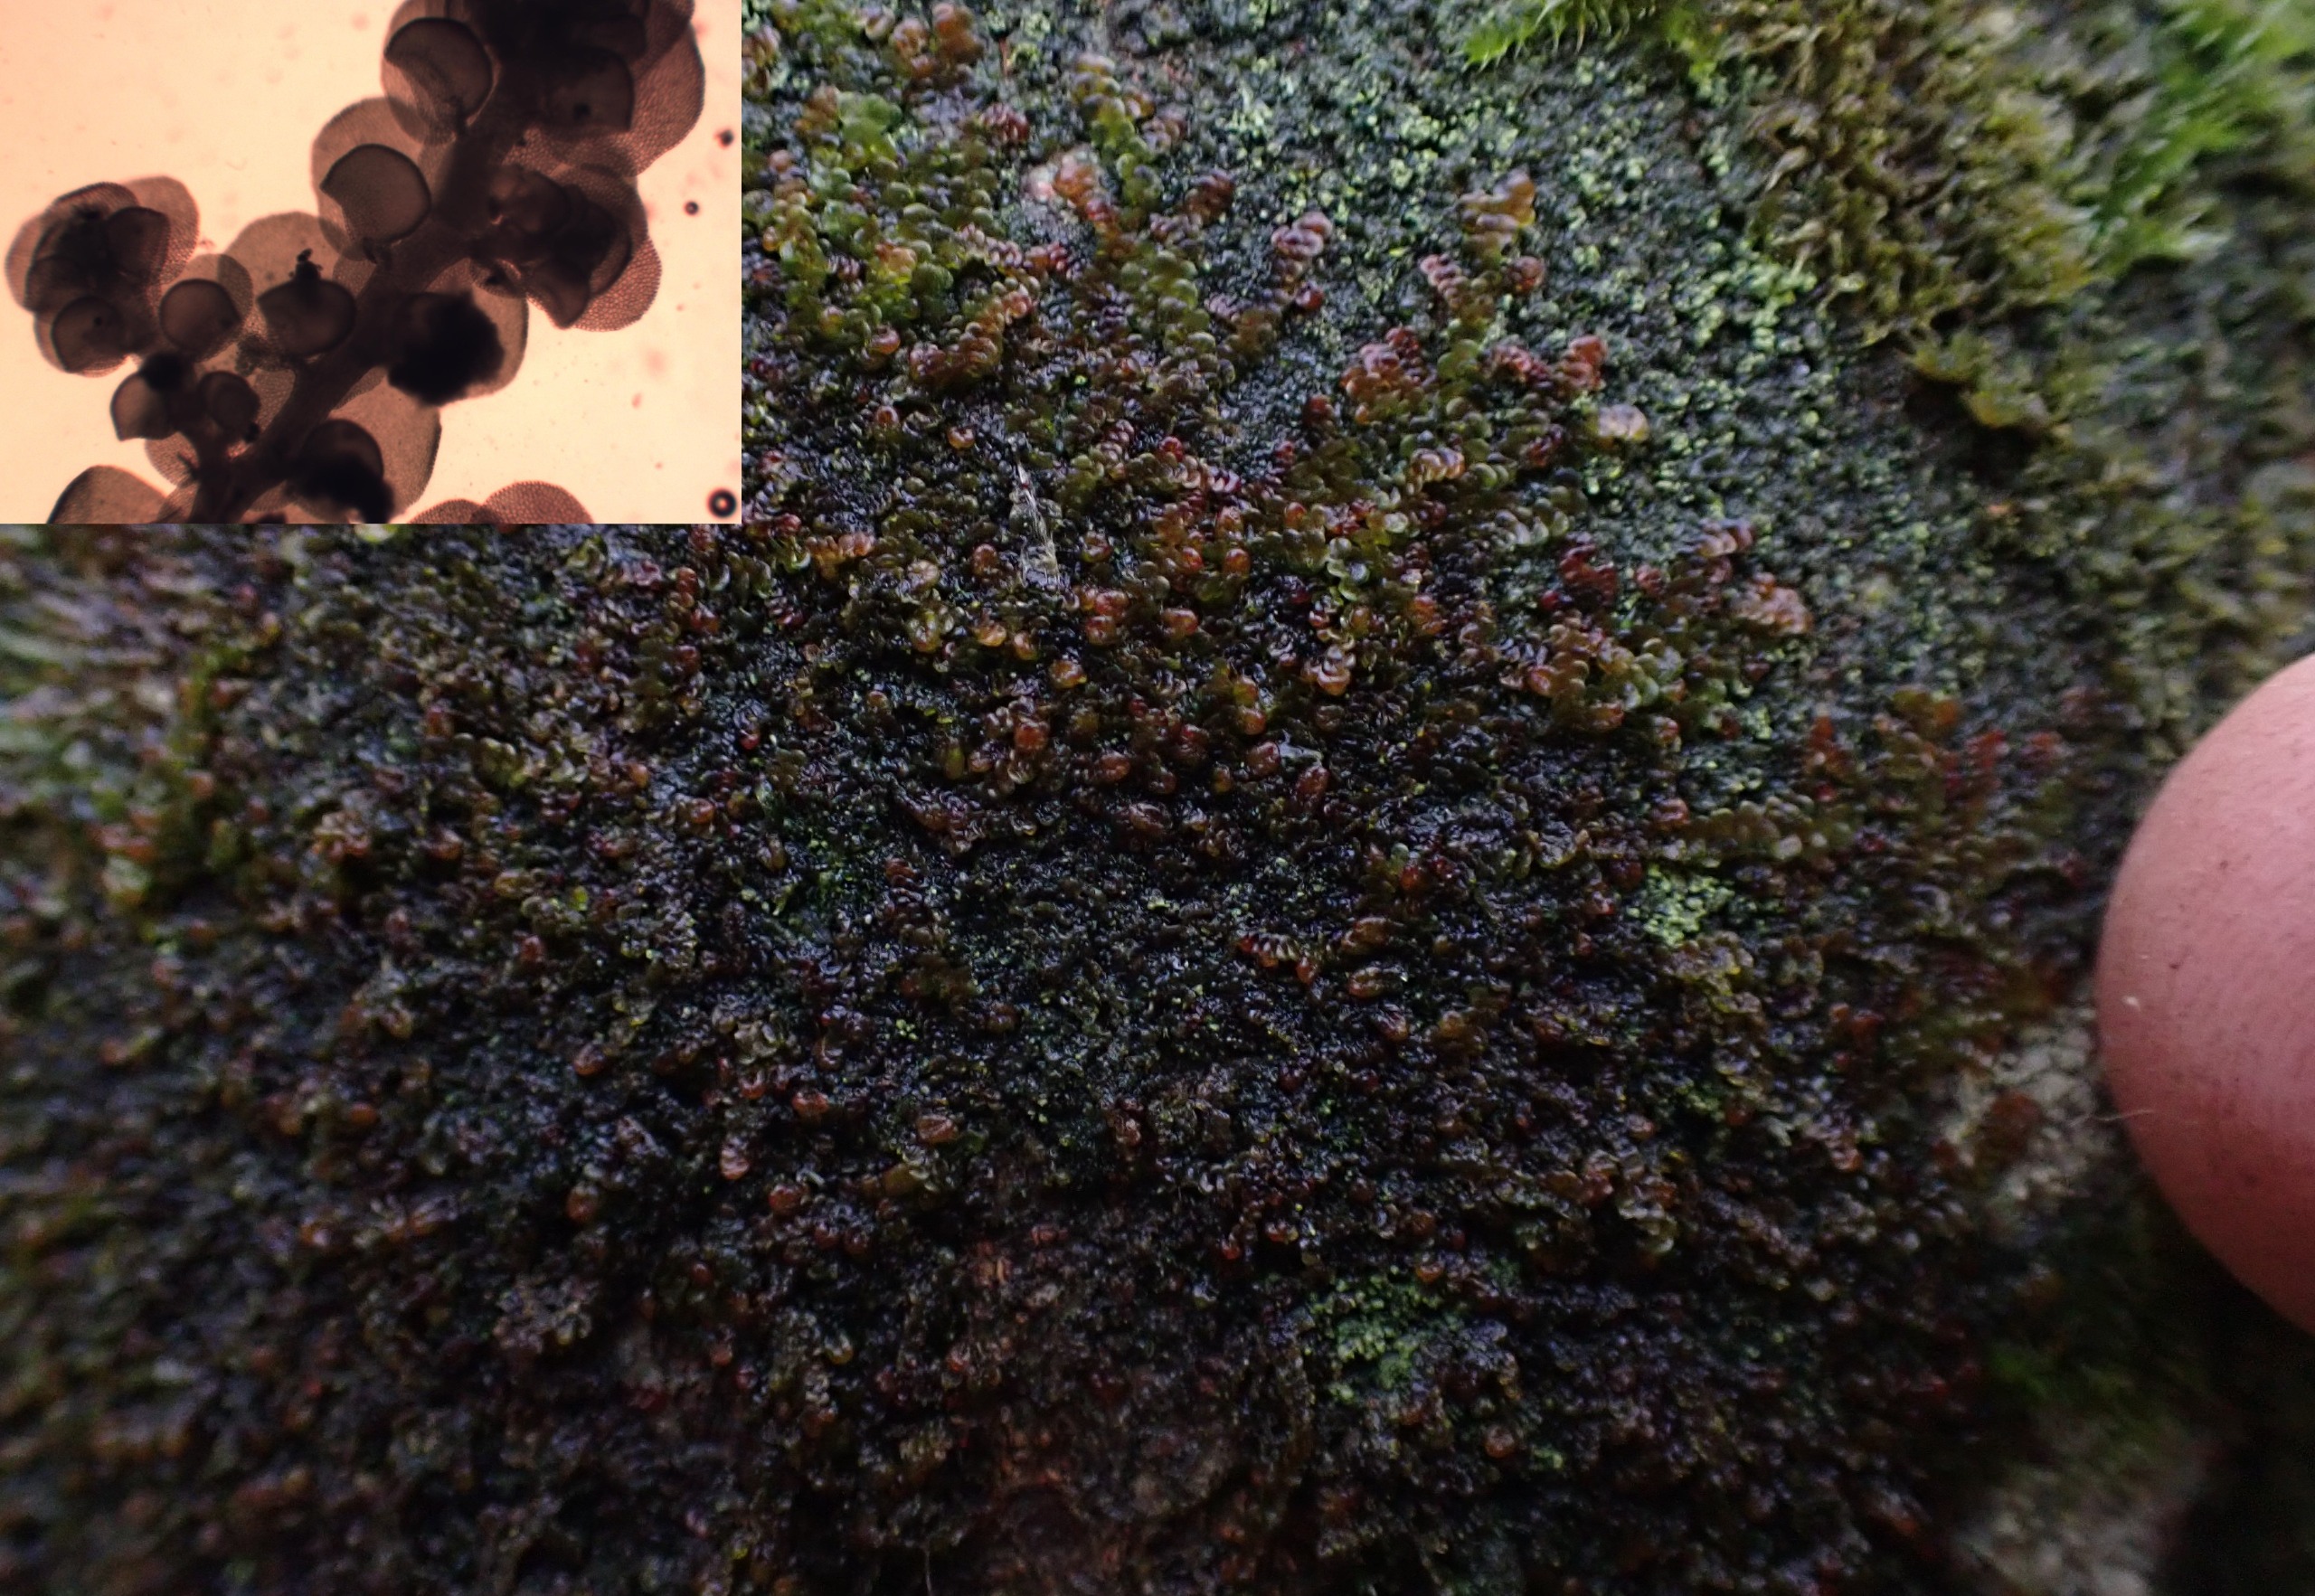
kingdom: Plantae
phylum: Marchantiophyta
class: Jungermanniopsida
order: Porellales
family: Frullaniaceae
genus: Frullania
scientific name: Frullania dilatata
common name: Mat bronzemos
